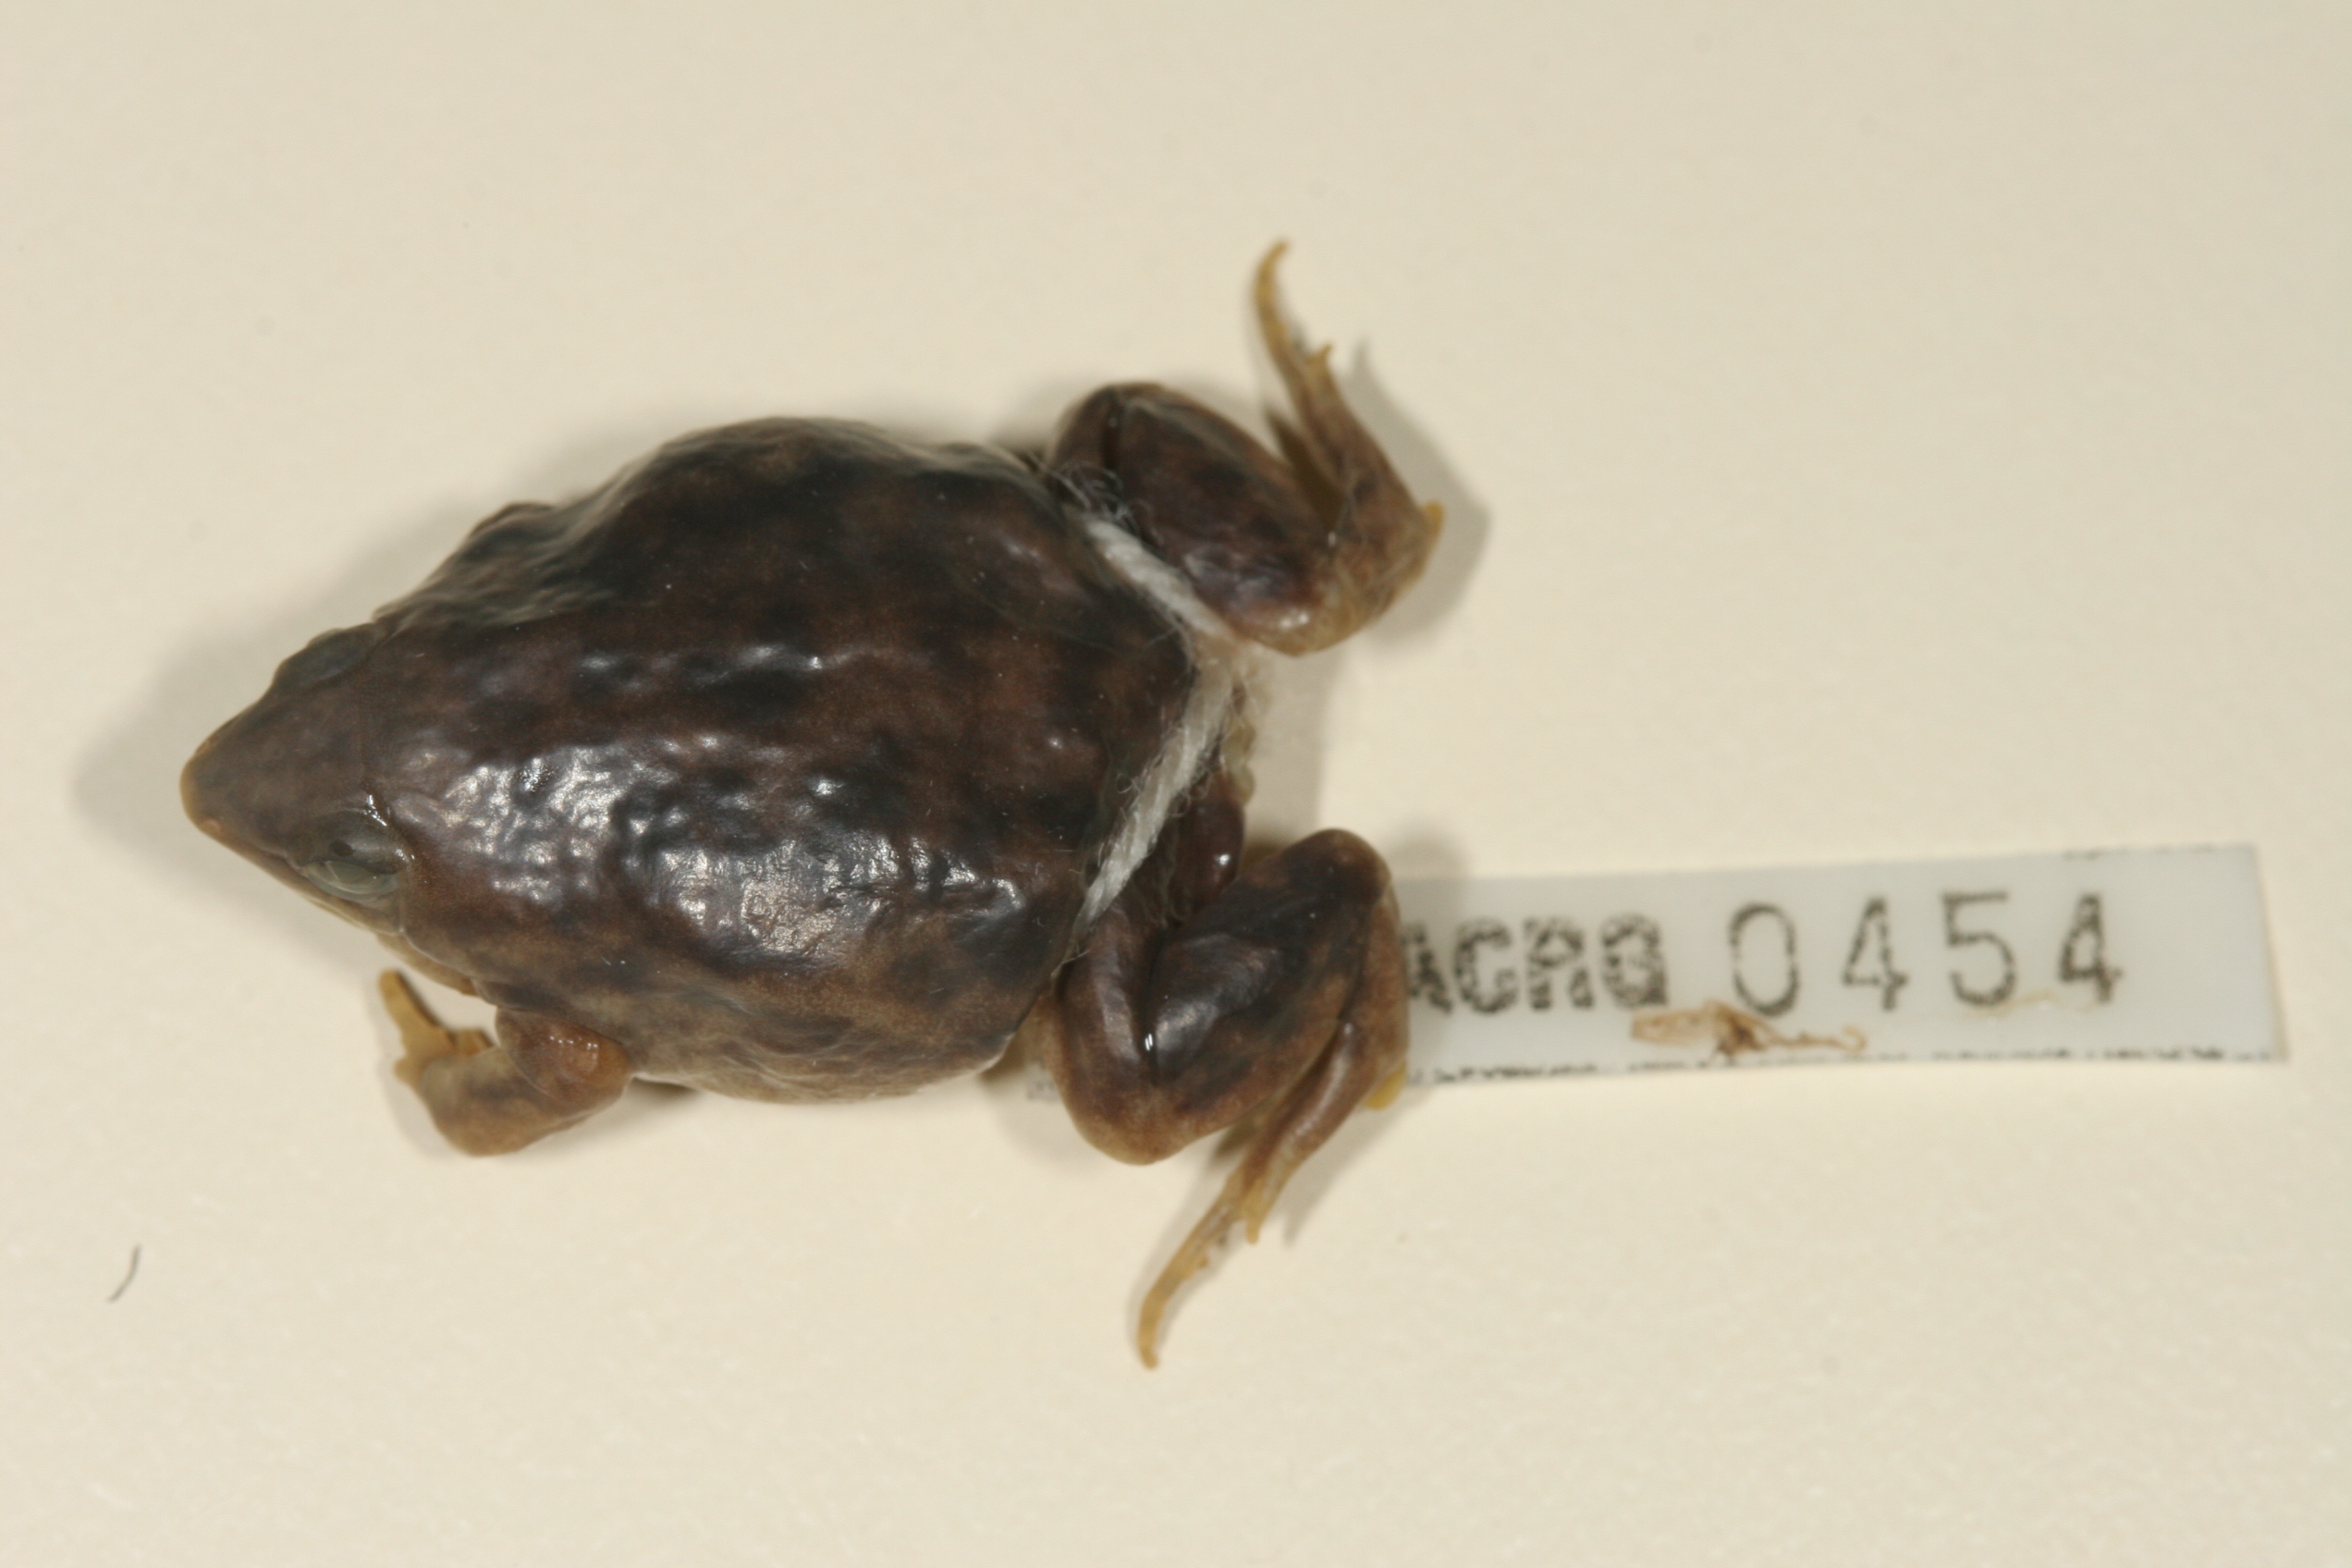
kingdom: Animalia
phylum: Chordata
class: Amphibia
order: Anura
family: Hemisotidae
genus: Hemisus
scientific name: Hemisus marmoratus
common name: Mottled shovel-nosed frog
